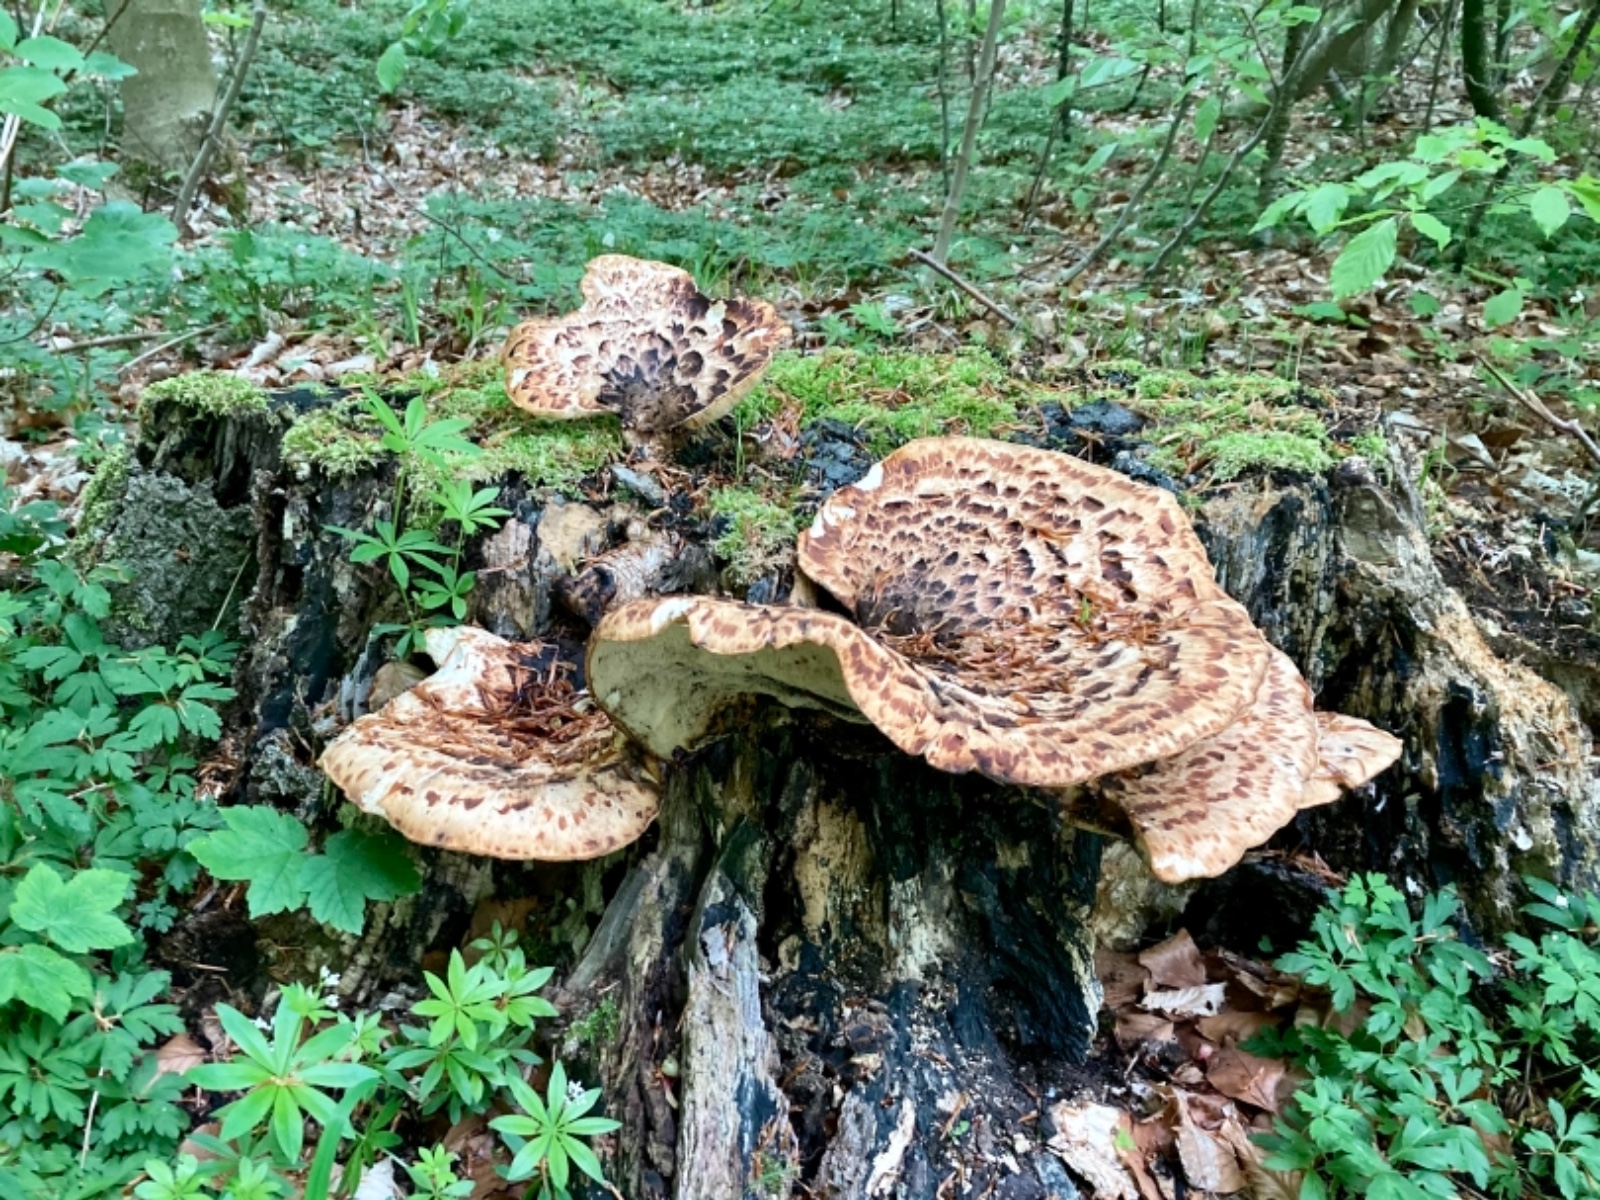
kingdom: Fungi
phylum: Basidiomycota
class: Agaricomycetes
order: Polyporales
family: Polyporaceae
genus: Cerioporus
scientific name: Cerioporus squamosus
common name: skællet stilkporesvamp
